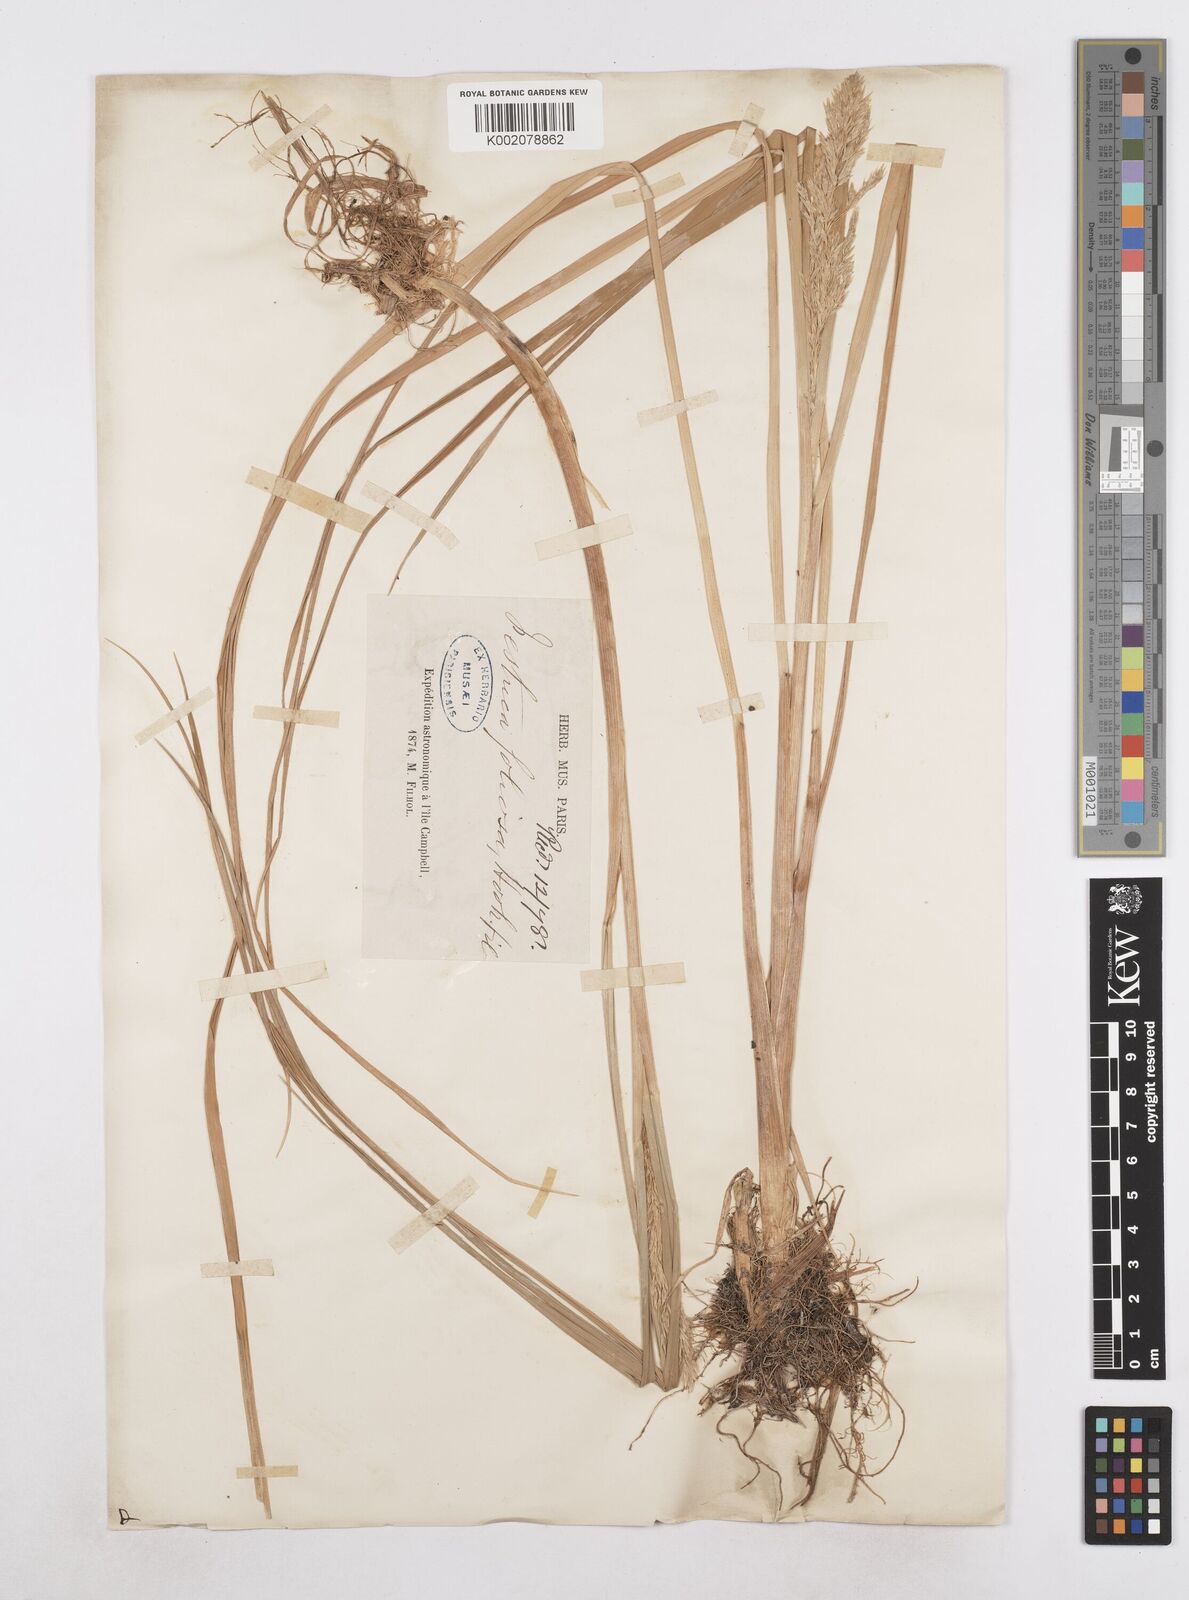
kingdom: Plantae
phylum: Tracheophyta
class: Liliopsida
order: Poales
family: Poaceae
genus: Poa
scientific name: Poa foliosa
